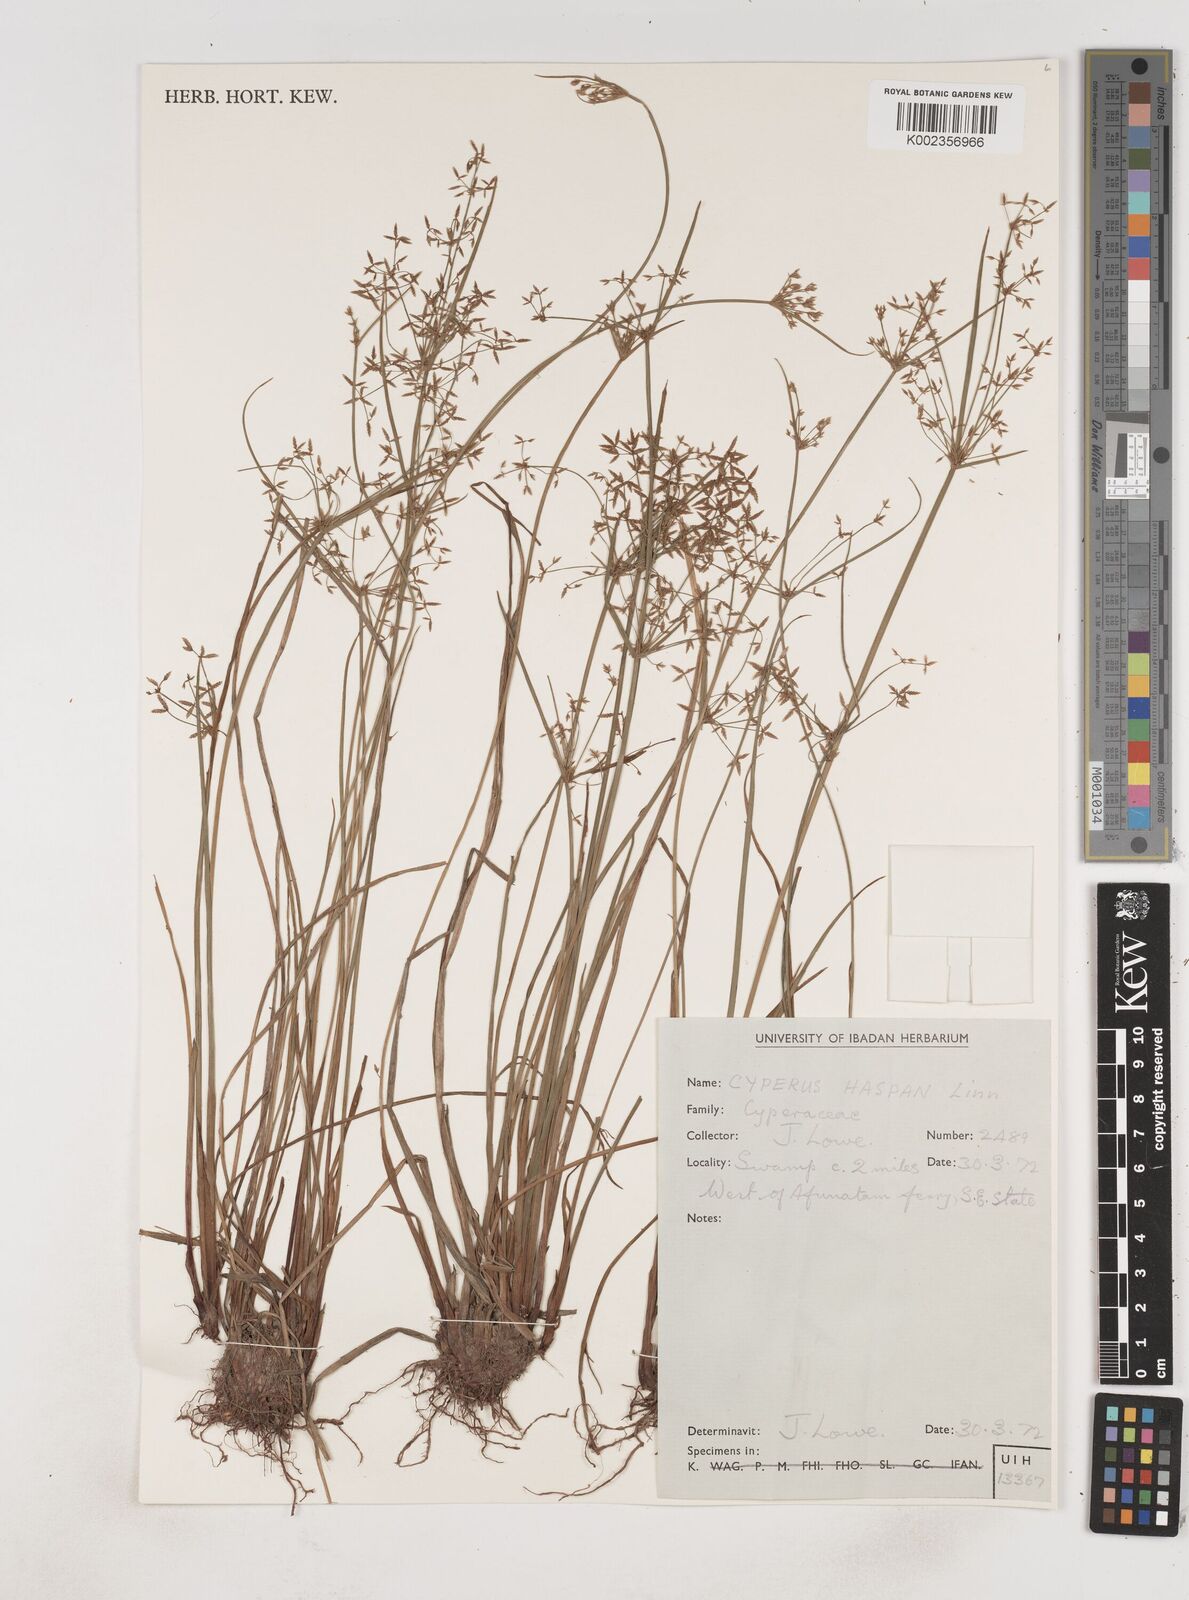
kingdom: Plantae
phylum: Tracheophyta
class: Liliopsida
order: Poales
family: Cyperaceae
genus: Cyperus
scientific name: Cyperus haspan
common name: Haspan flatsedge
